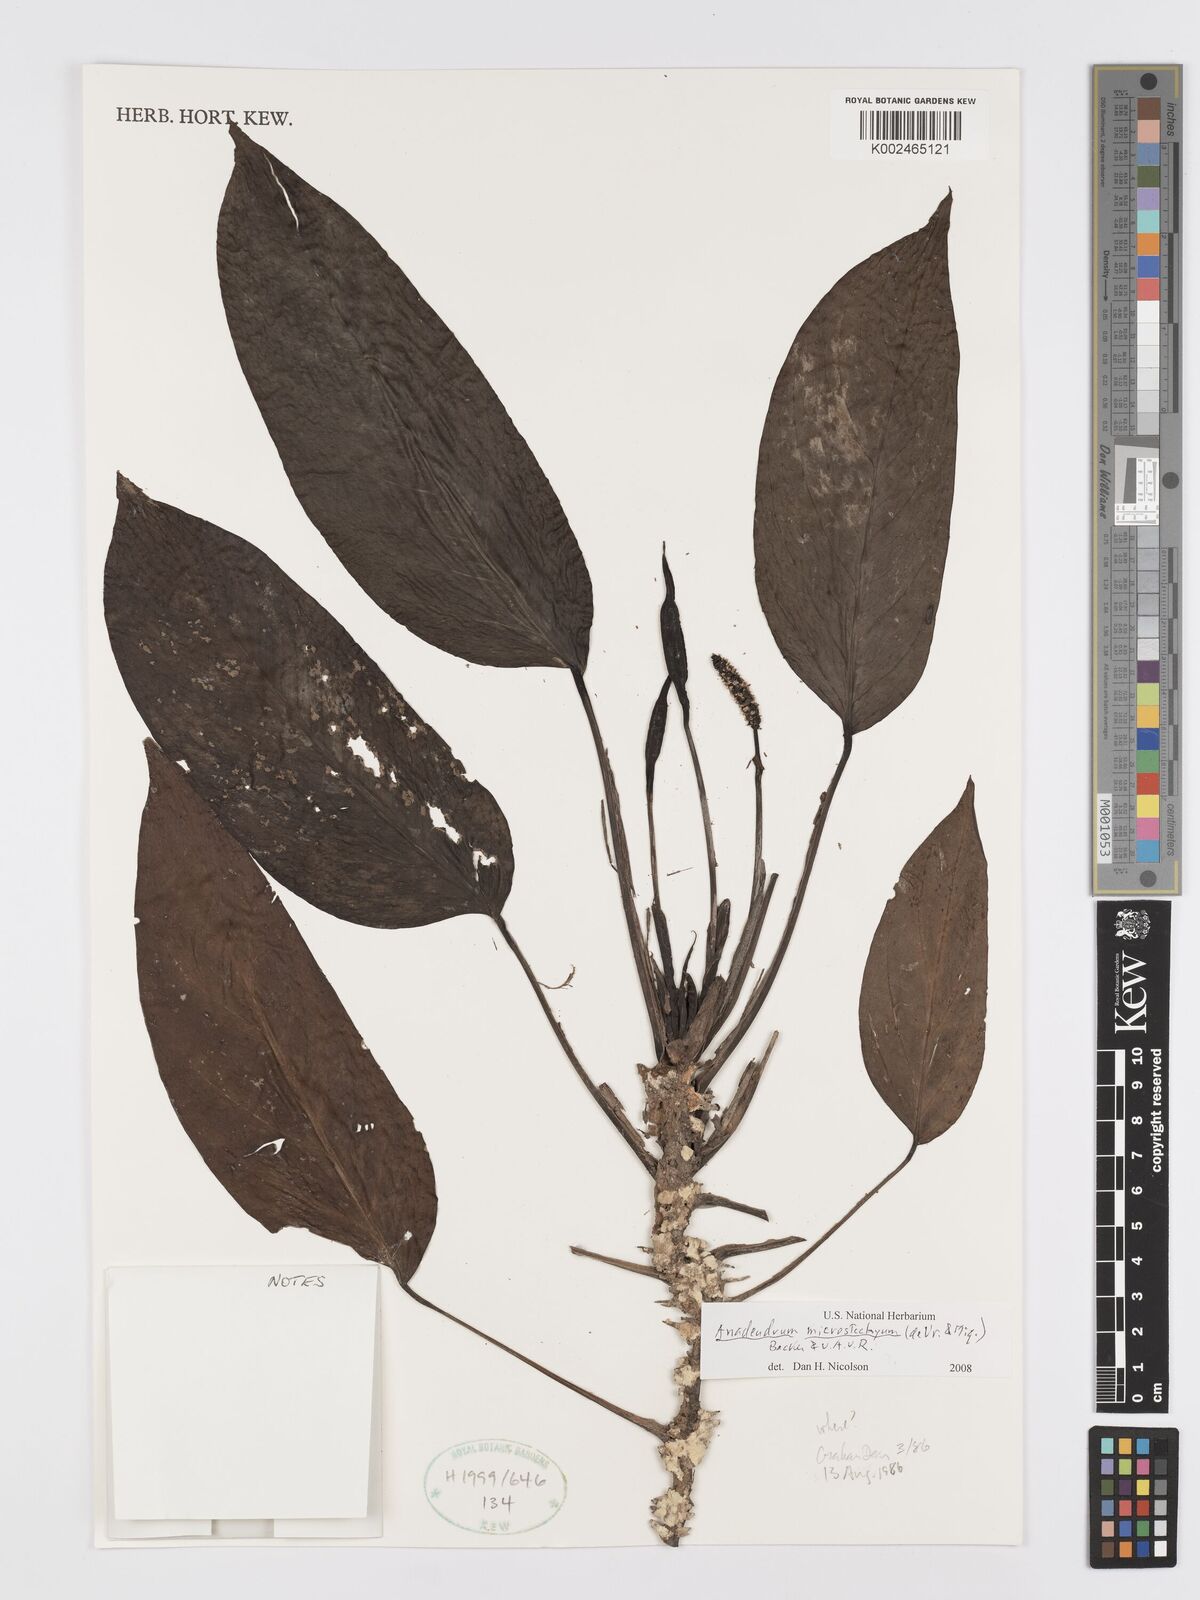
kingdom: Plantae
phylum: Tracheophyta
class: Liliopsida
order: Alismatales
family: Araceae
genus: Anadendrum
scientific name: Anadendrum microstachyum
